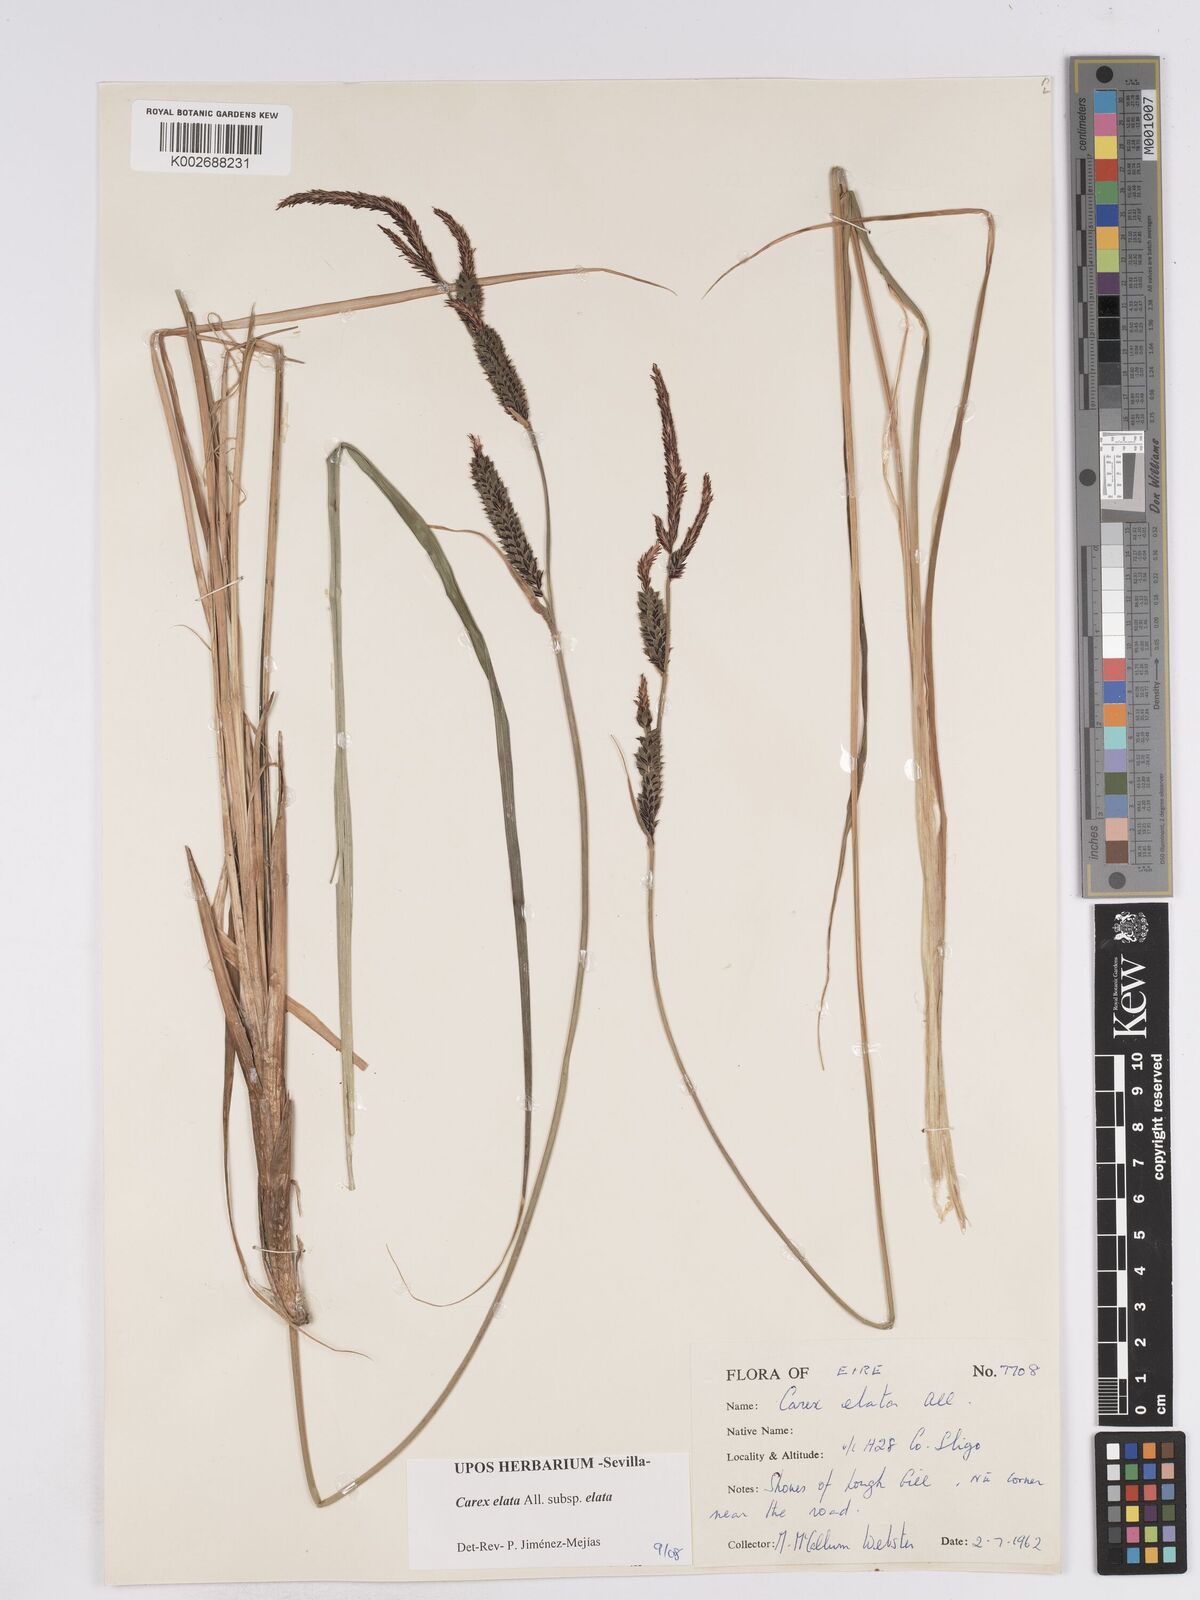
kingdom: Plantae
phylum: Tracheophyta
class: Liliopsida
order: Poales
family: Cyperaceae
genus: Carex
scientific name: Carex elata
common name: Tufted sedge
